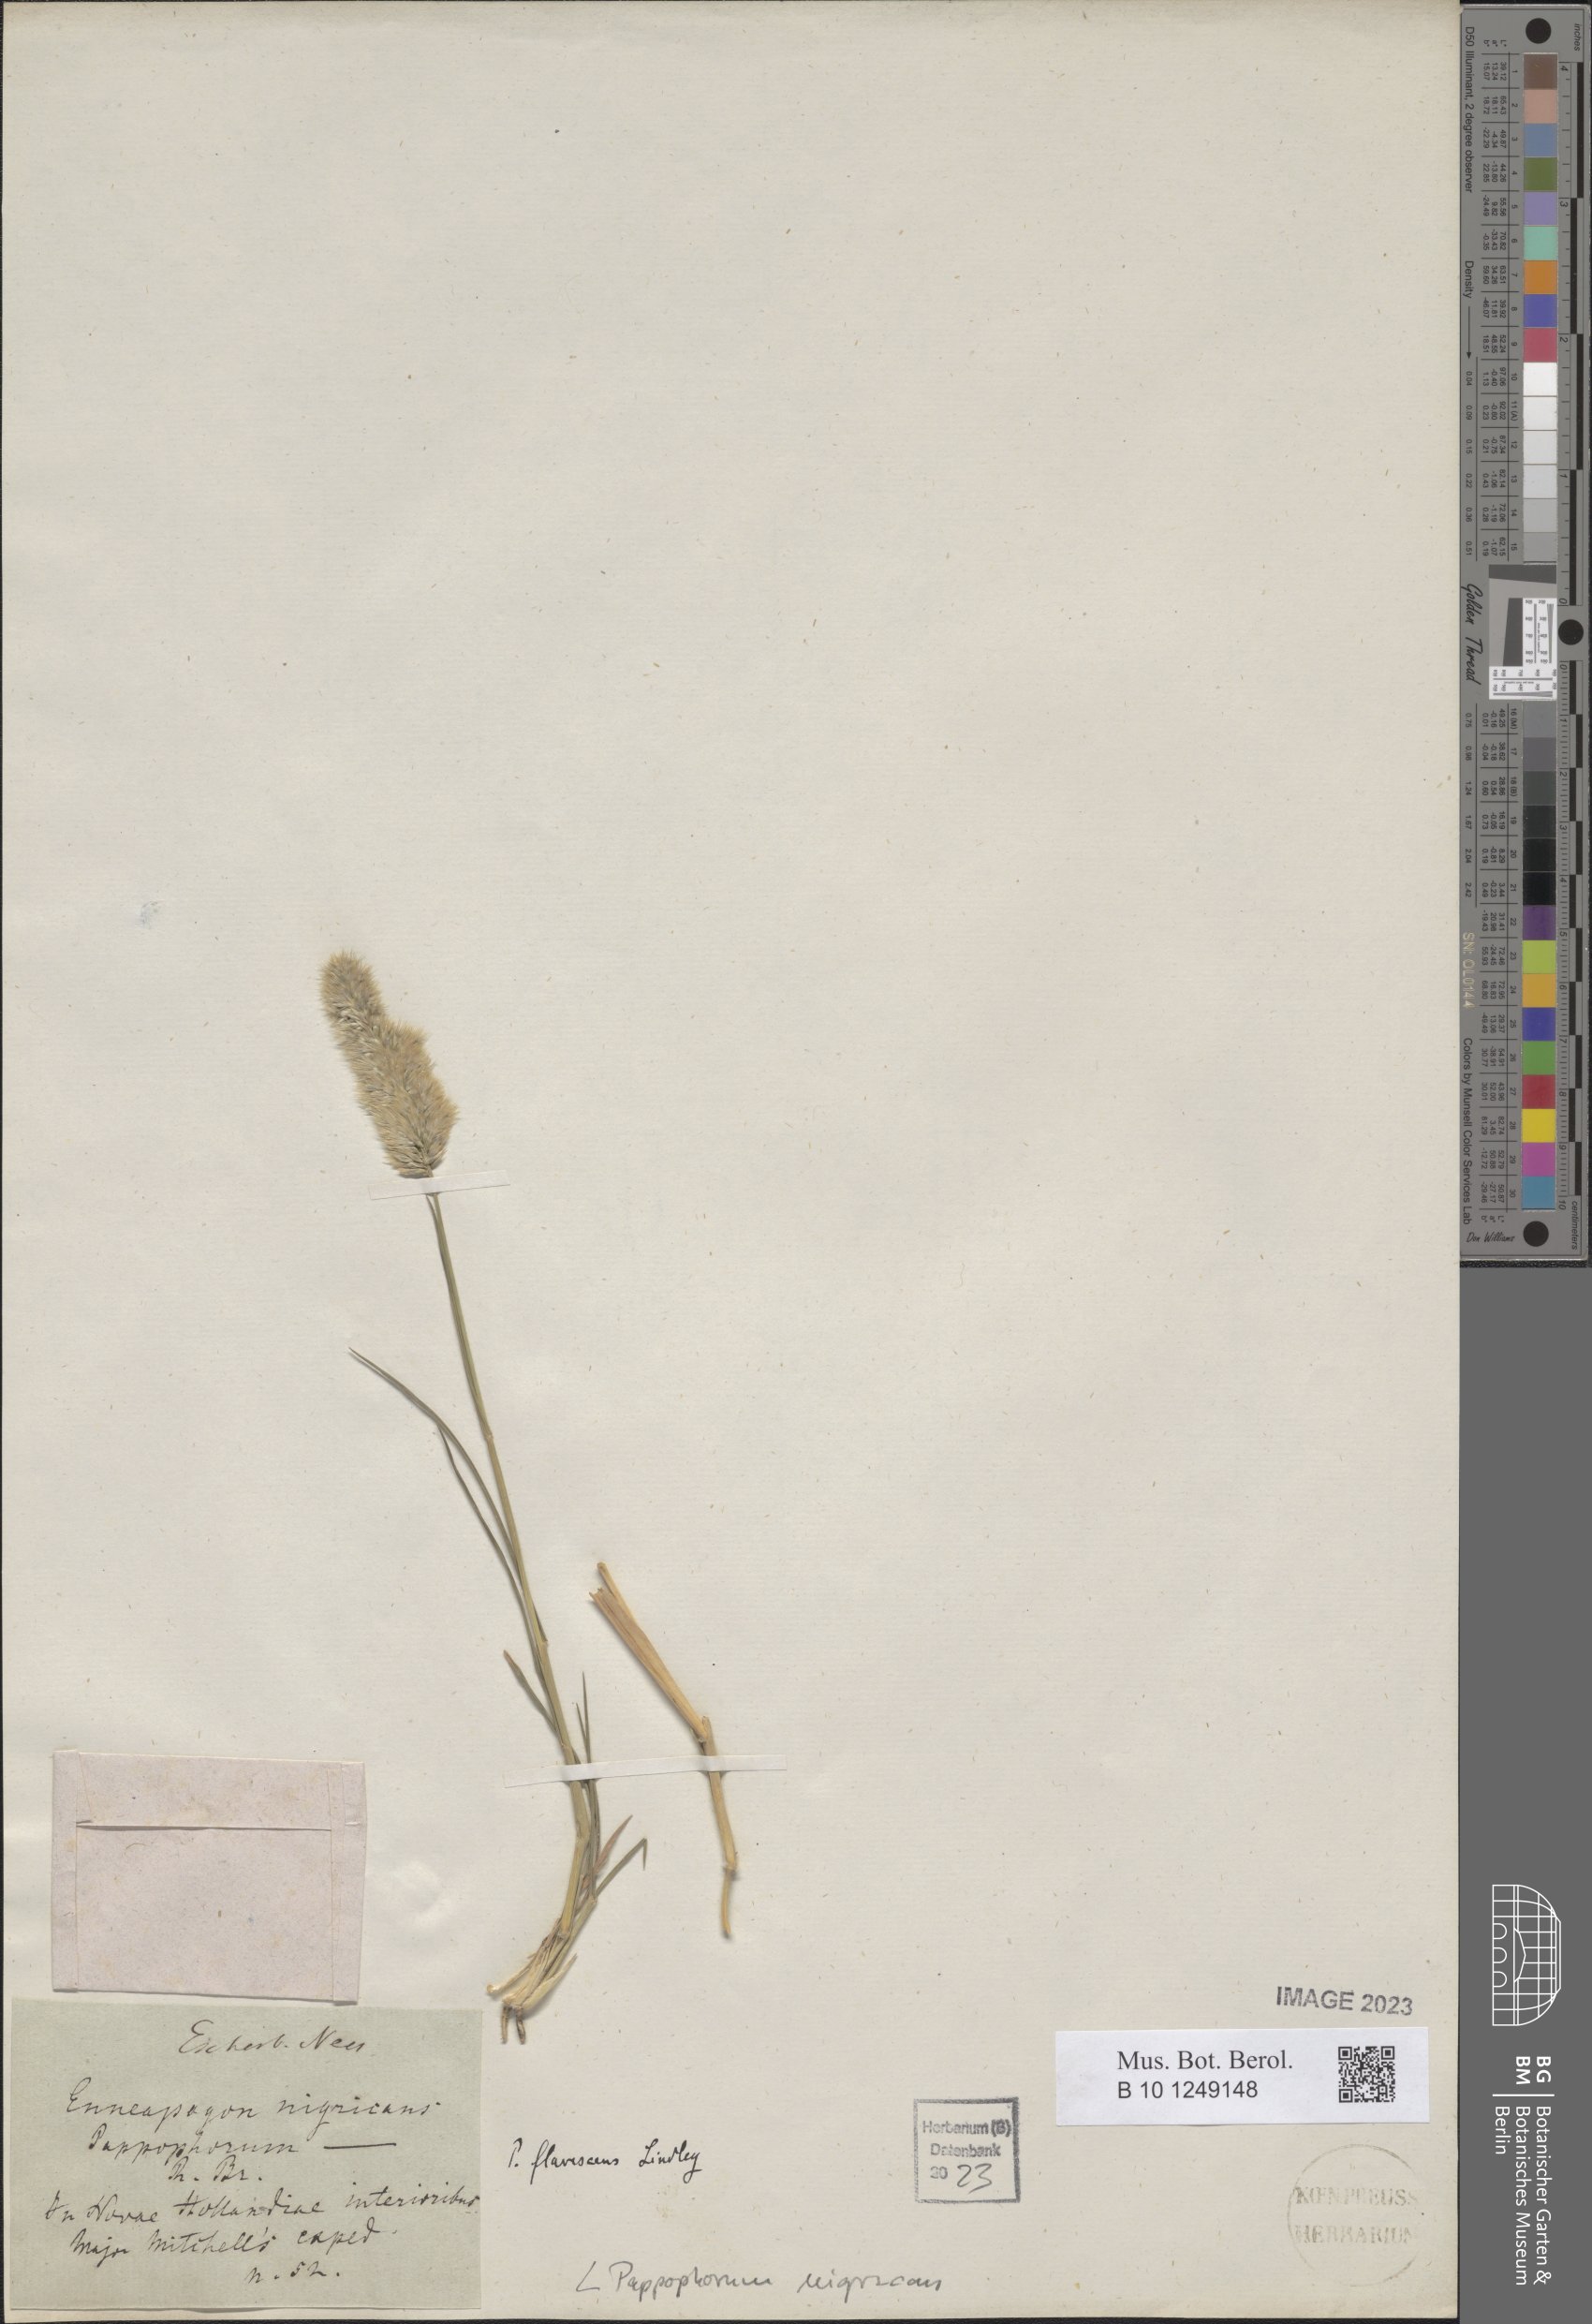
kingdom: Plantae
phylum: Tracheophyta
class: Liliopsida
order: Poales
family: Poaceae
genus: Enneapogon
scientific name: Enneapogon nigricans
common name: Pappus grass
